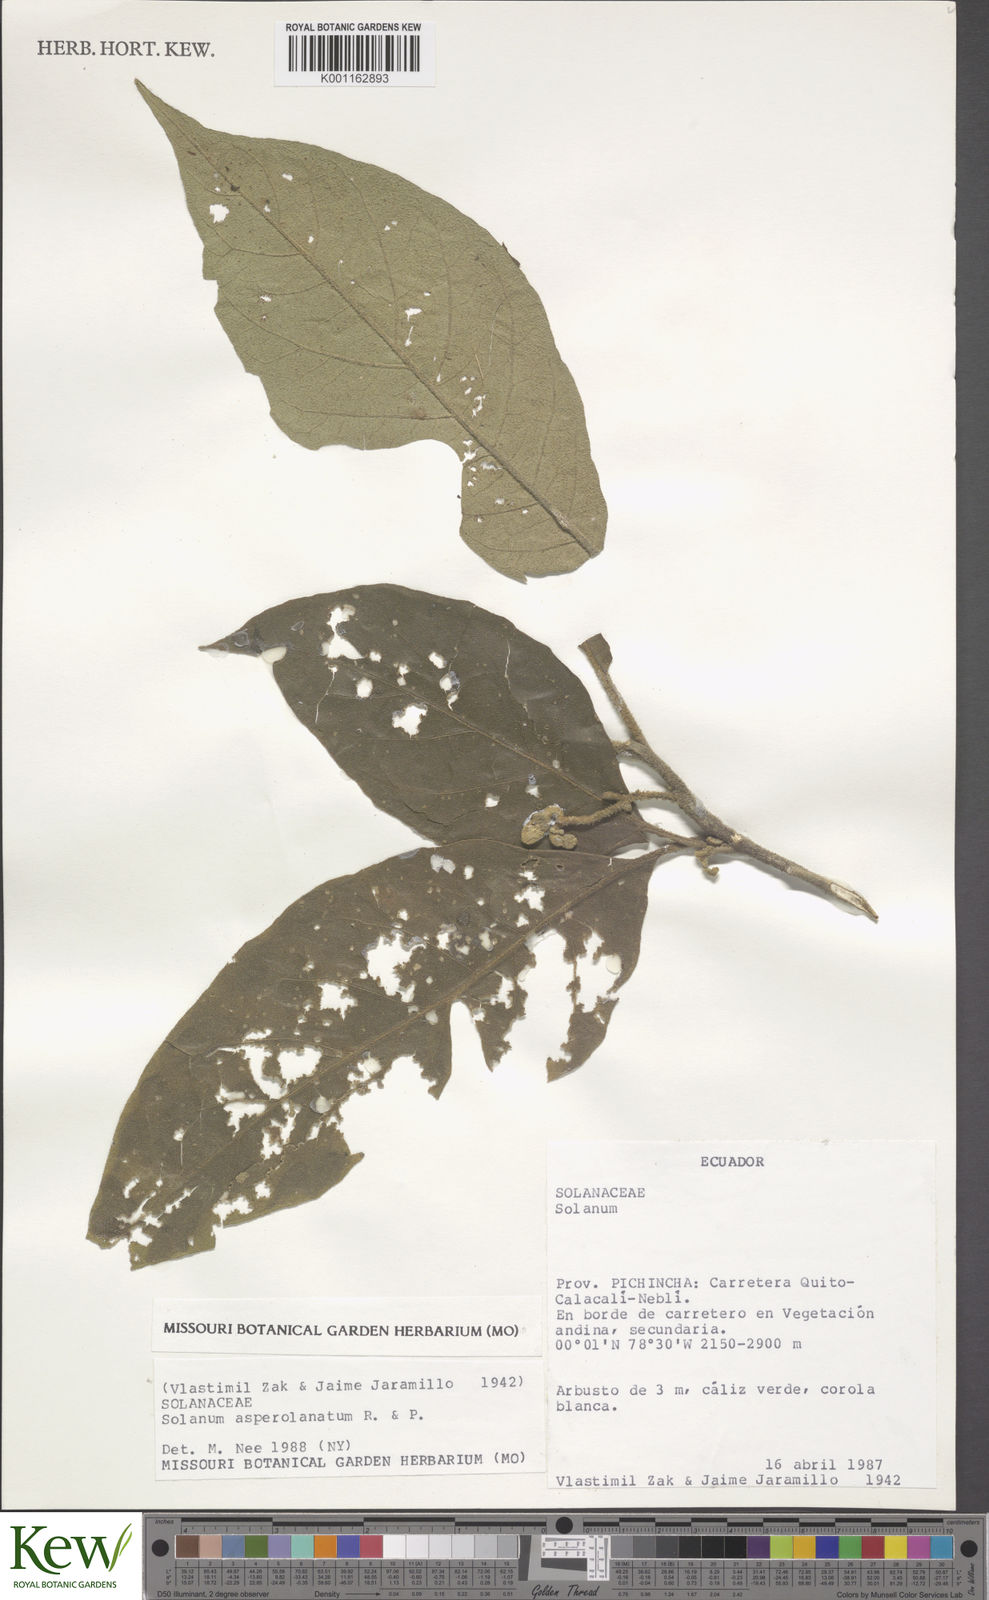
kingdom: Plantae
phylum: Tracheophyta
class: Magnoliopsida
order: Solanales
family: Solanaceae
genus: Solanum
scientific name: Solanum asperolanatum
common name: Devil's-fig
